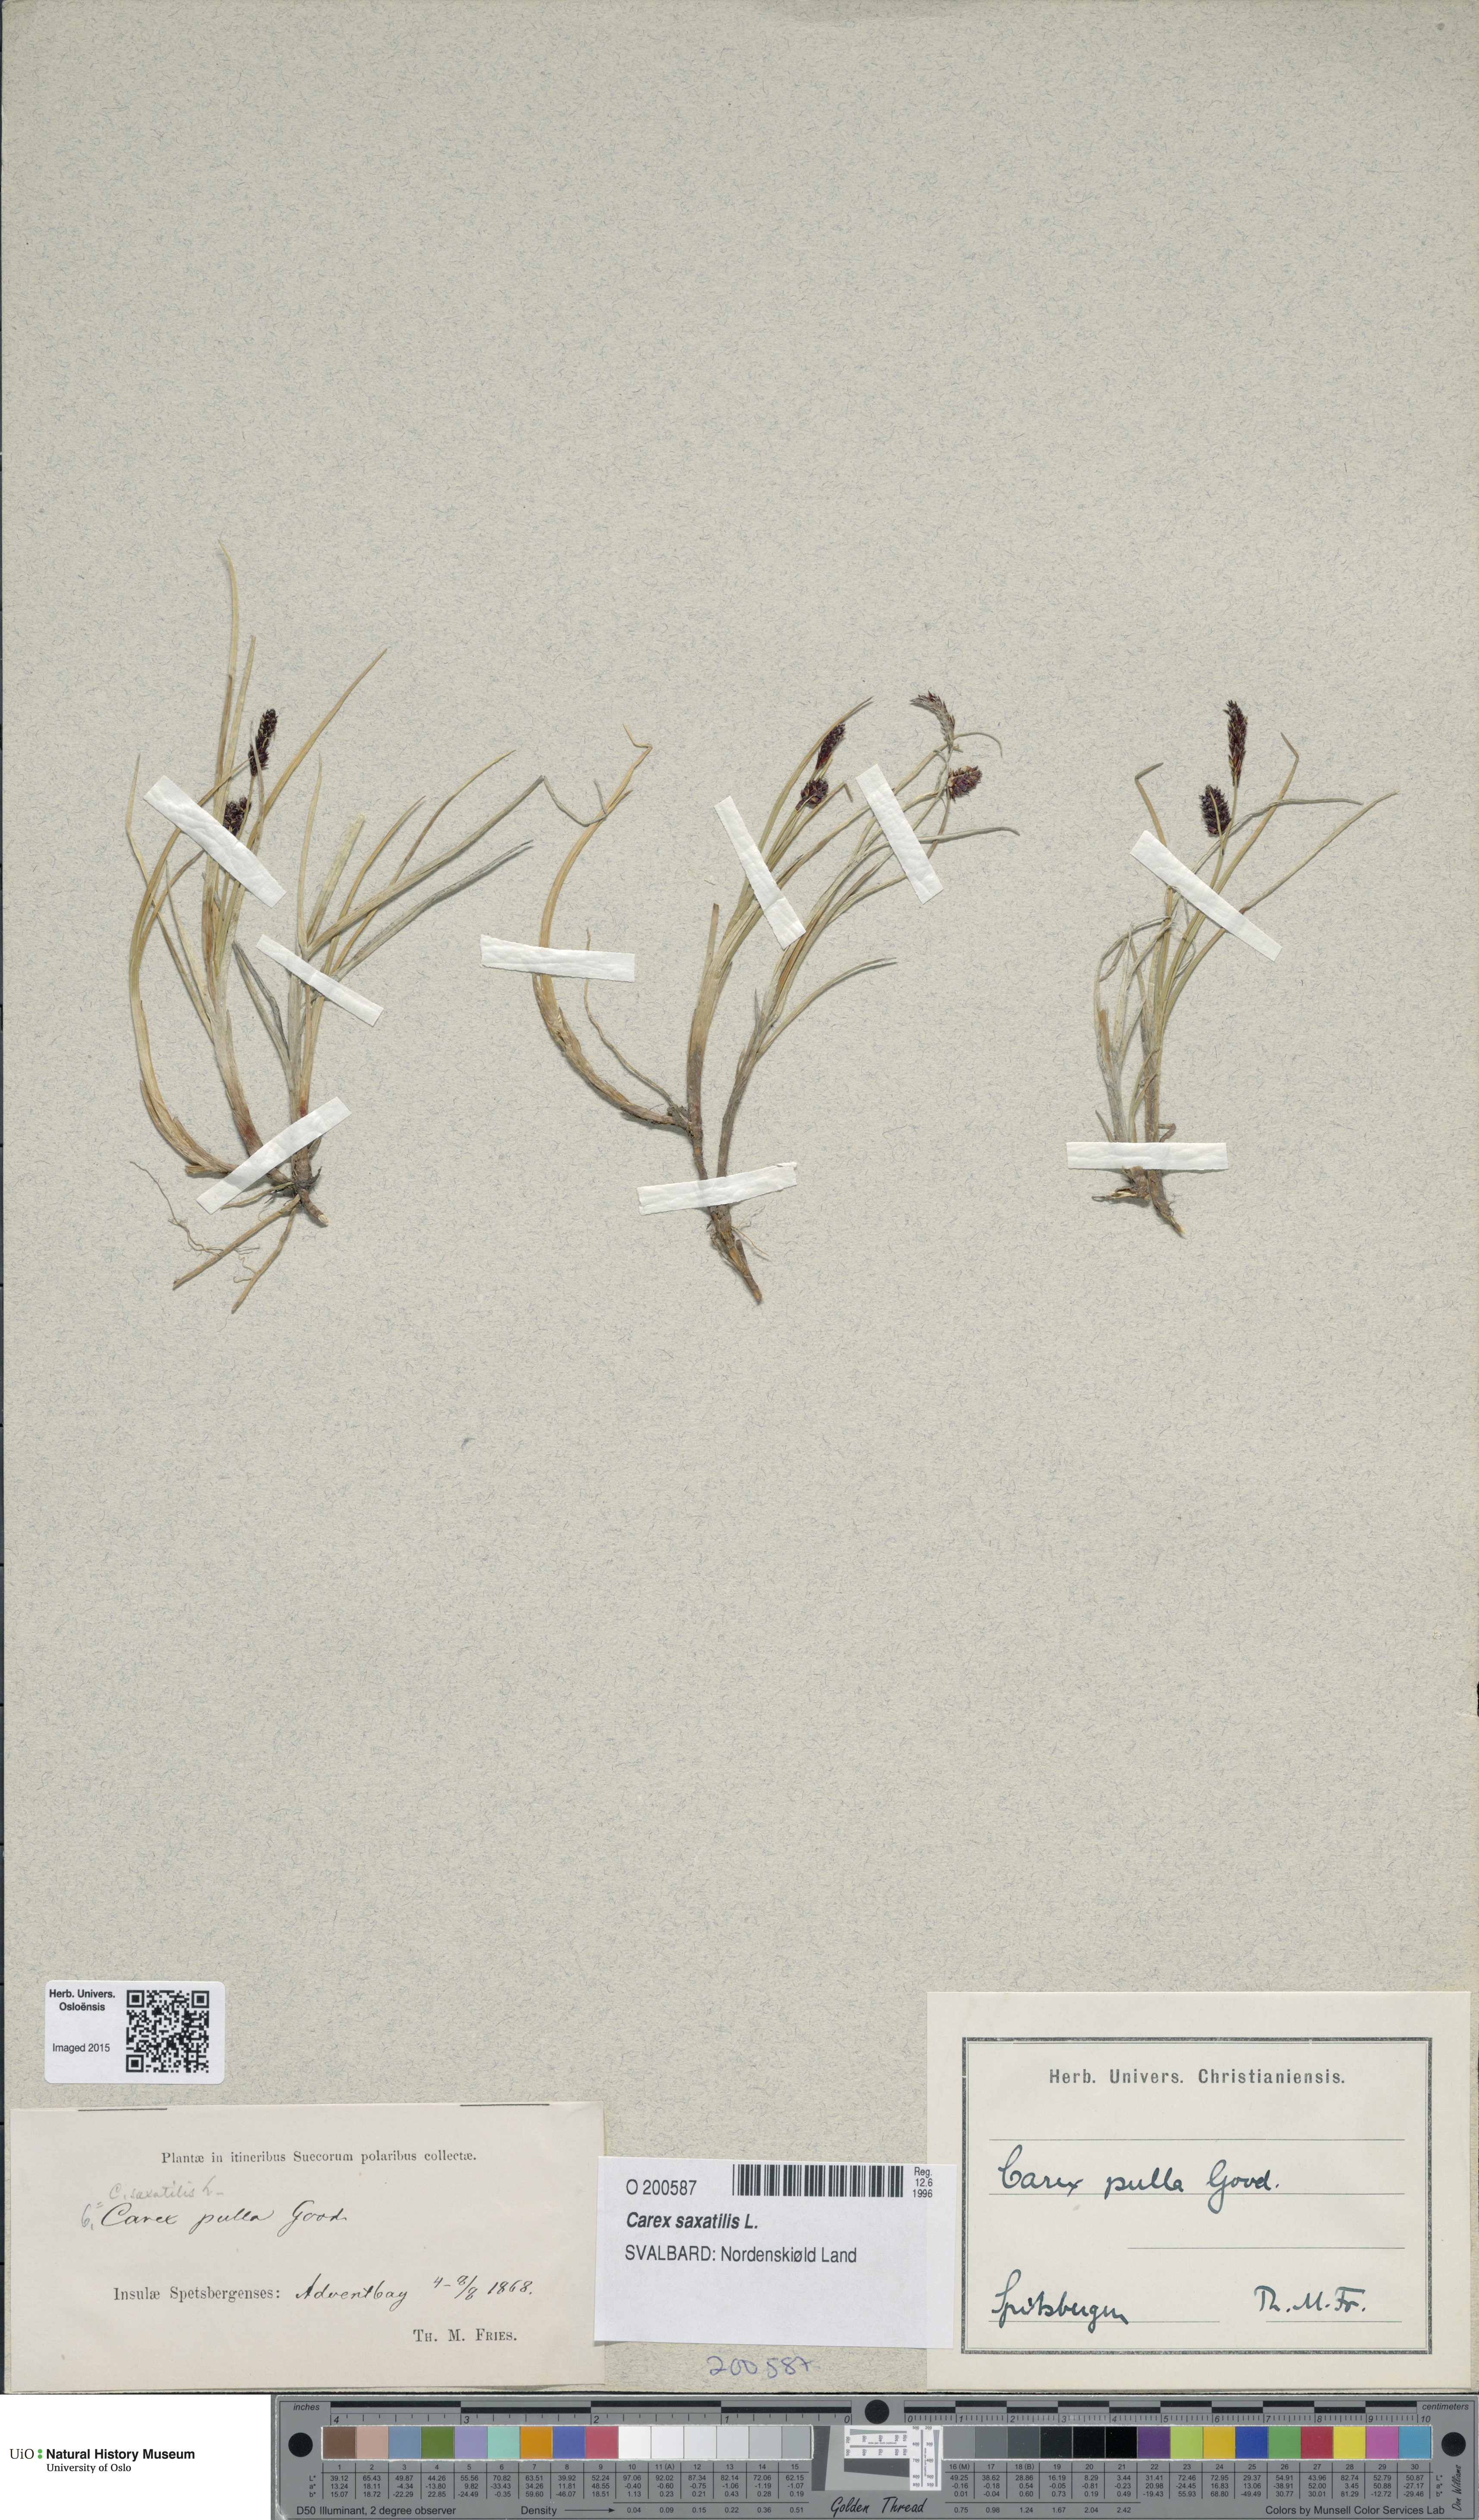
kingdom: Plantae
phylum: Tracheophyta
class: Liliopsida
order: Poales
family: Cyperaceae
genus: Carex
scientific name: Carex saxatilis
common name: Russet sedge
